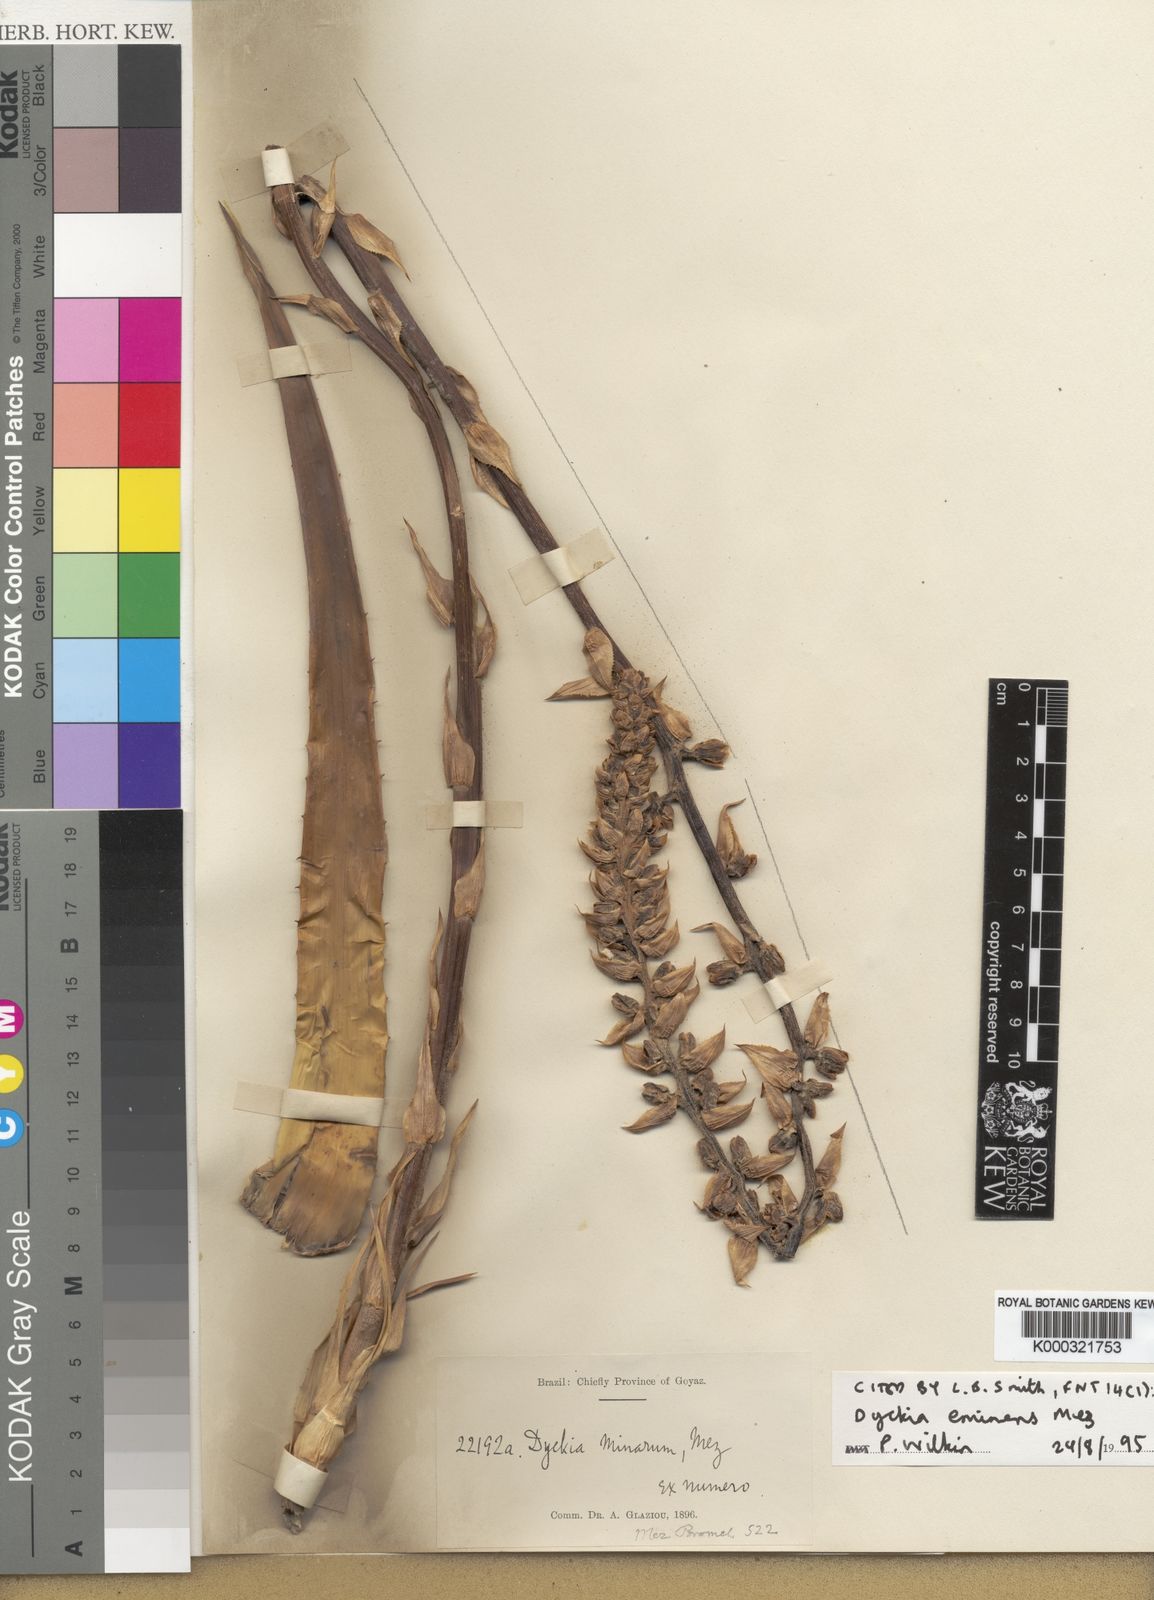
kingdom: Plantae
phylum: Tracheophyta
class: Liliopsida
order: Poales
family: Bromeliaceae
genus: Dyckia
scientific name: Dyckia eminens
